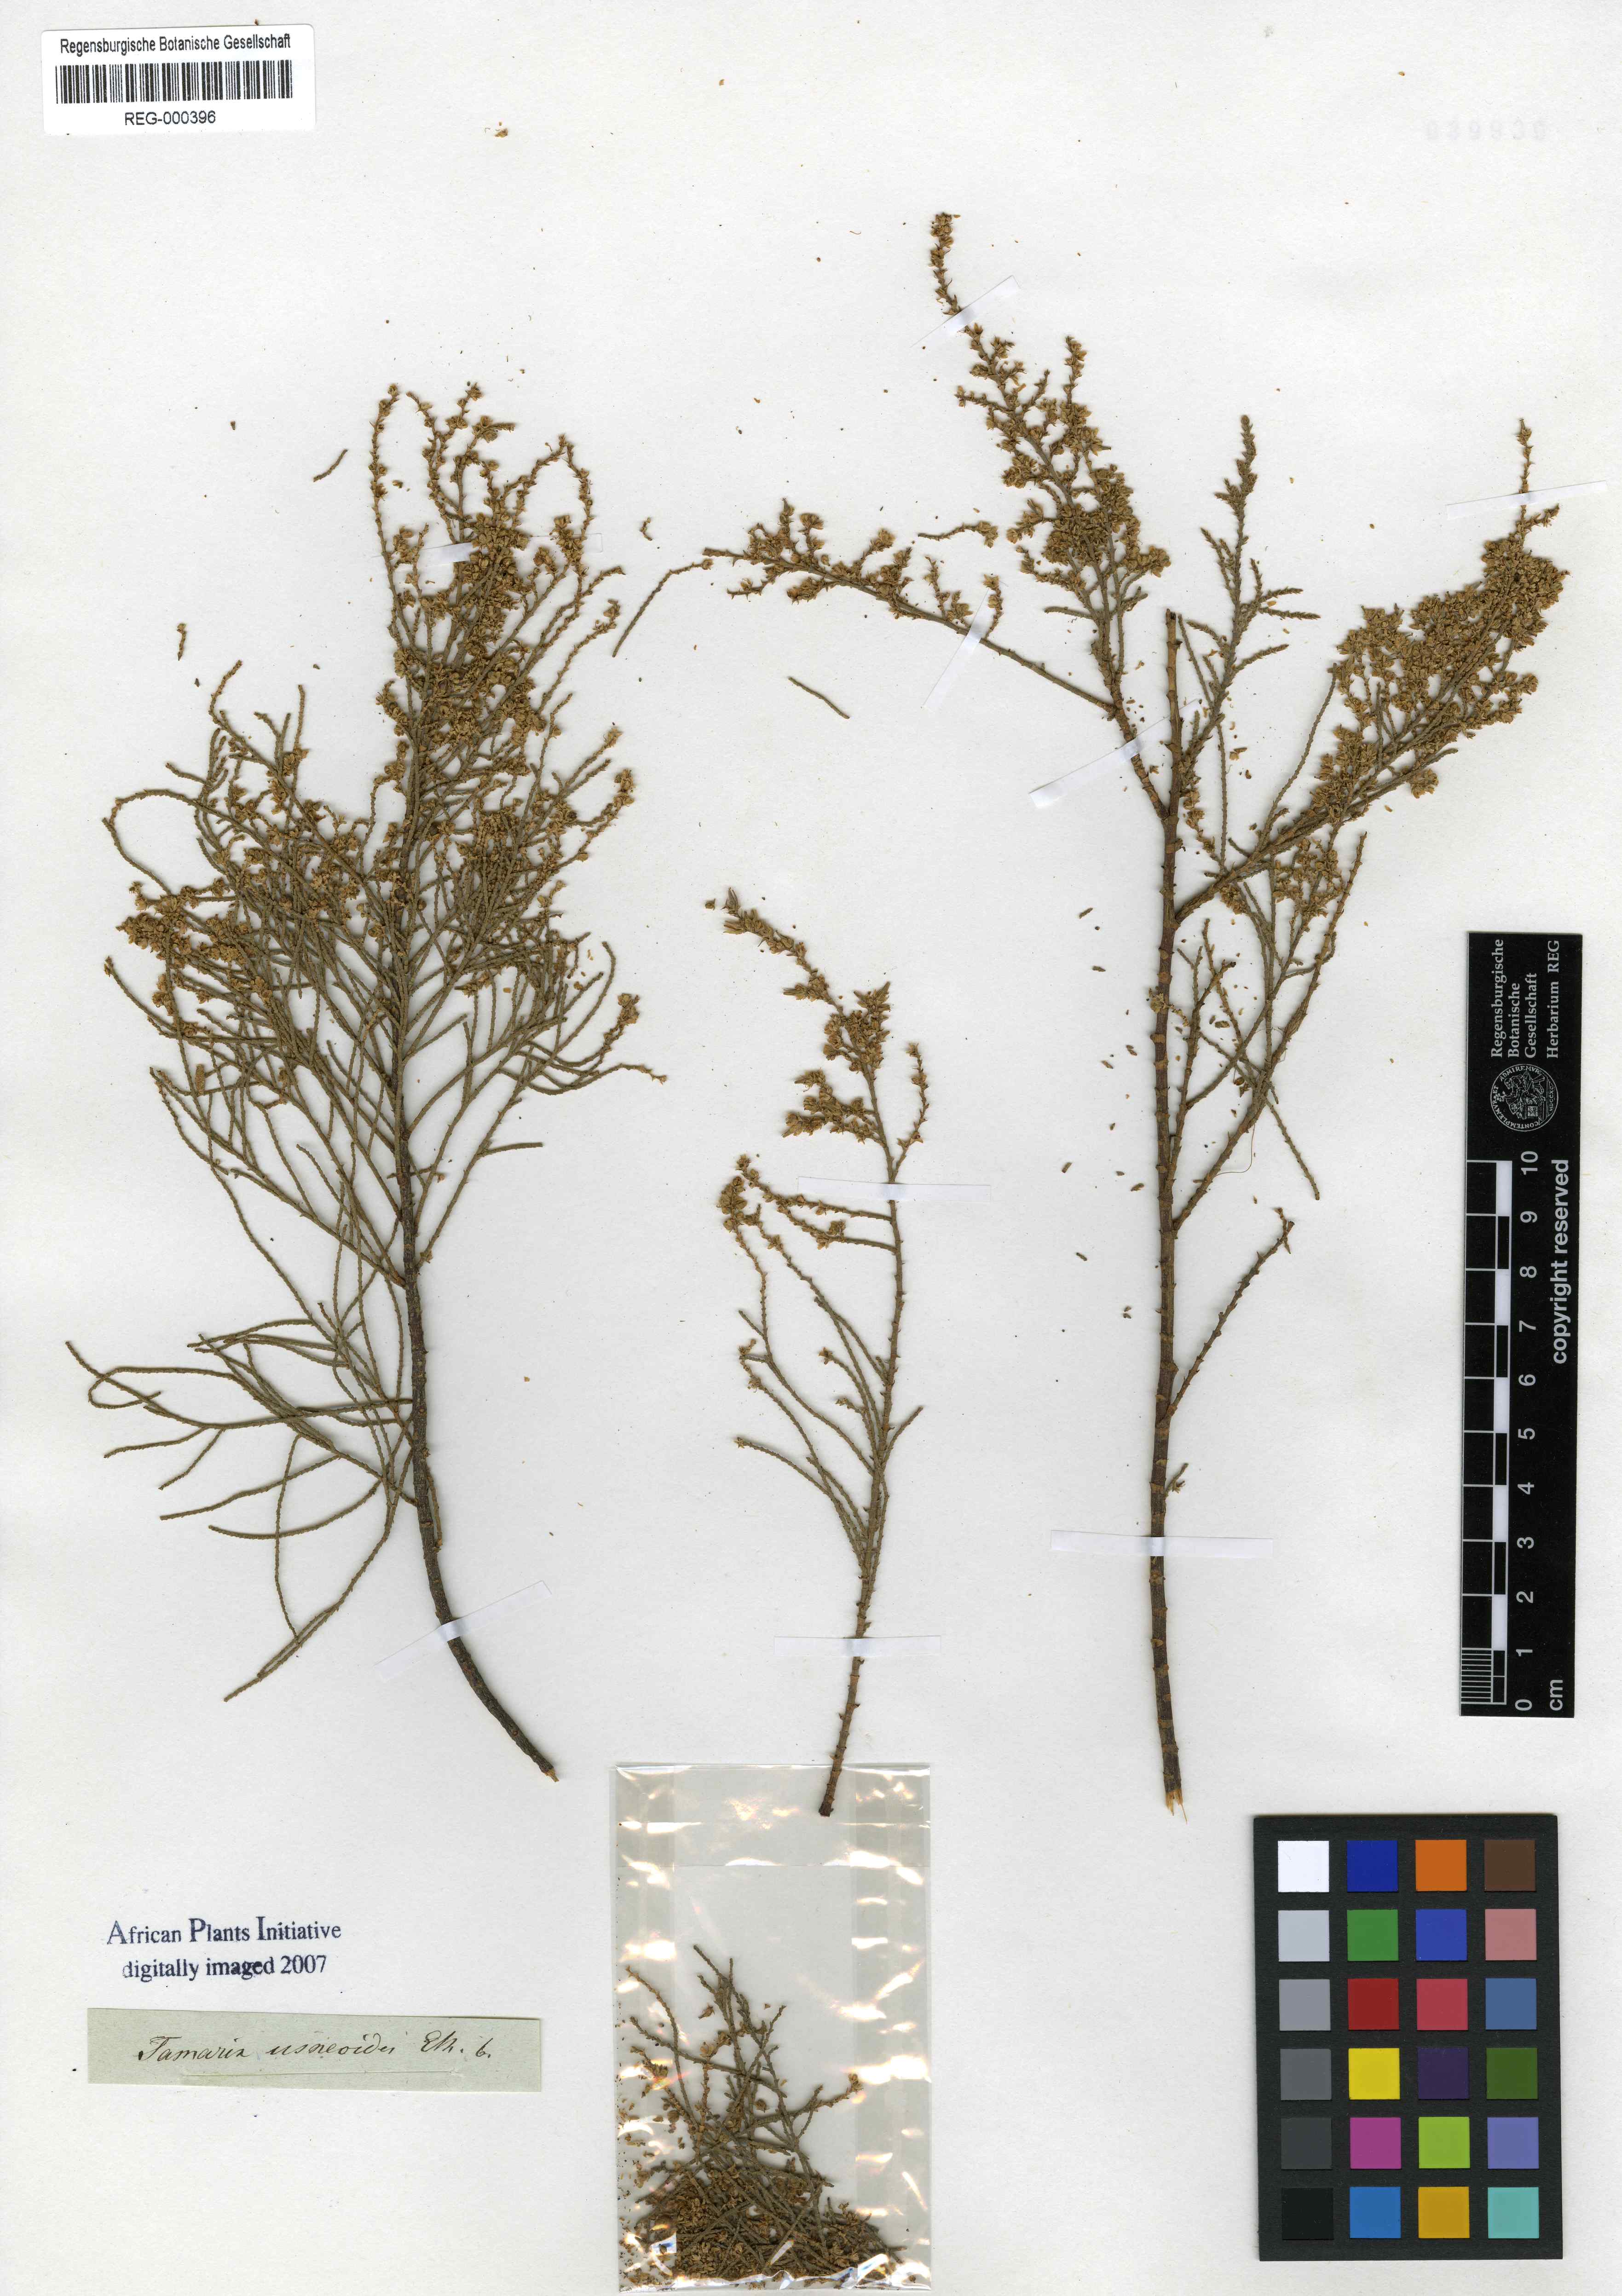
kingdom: Plantae
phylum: Tracheophyta
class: Magnoliopsida
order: Caryophyllales
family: Tamaricaceae
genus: Tamarix
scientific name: Tamarix usneoides
